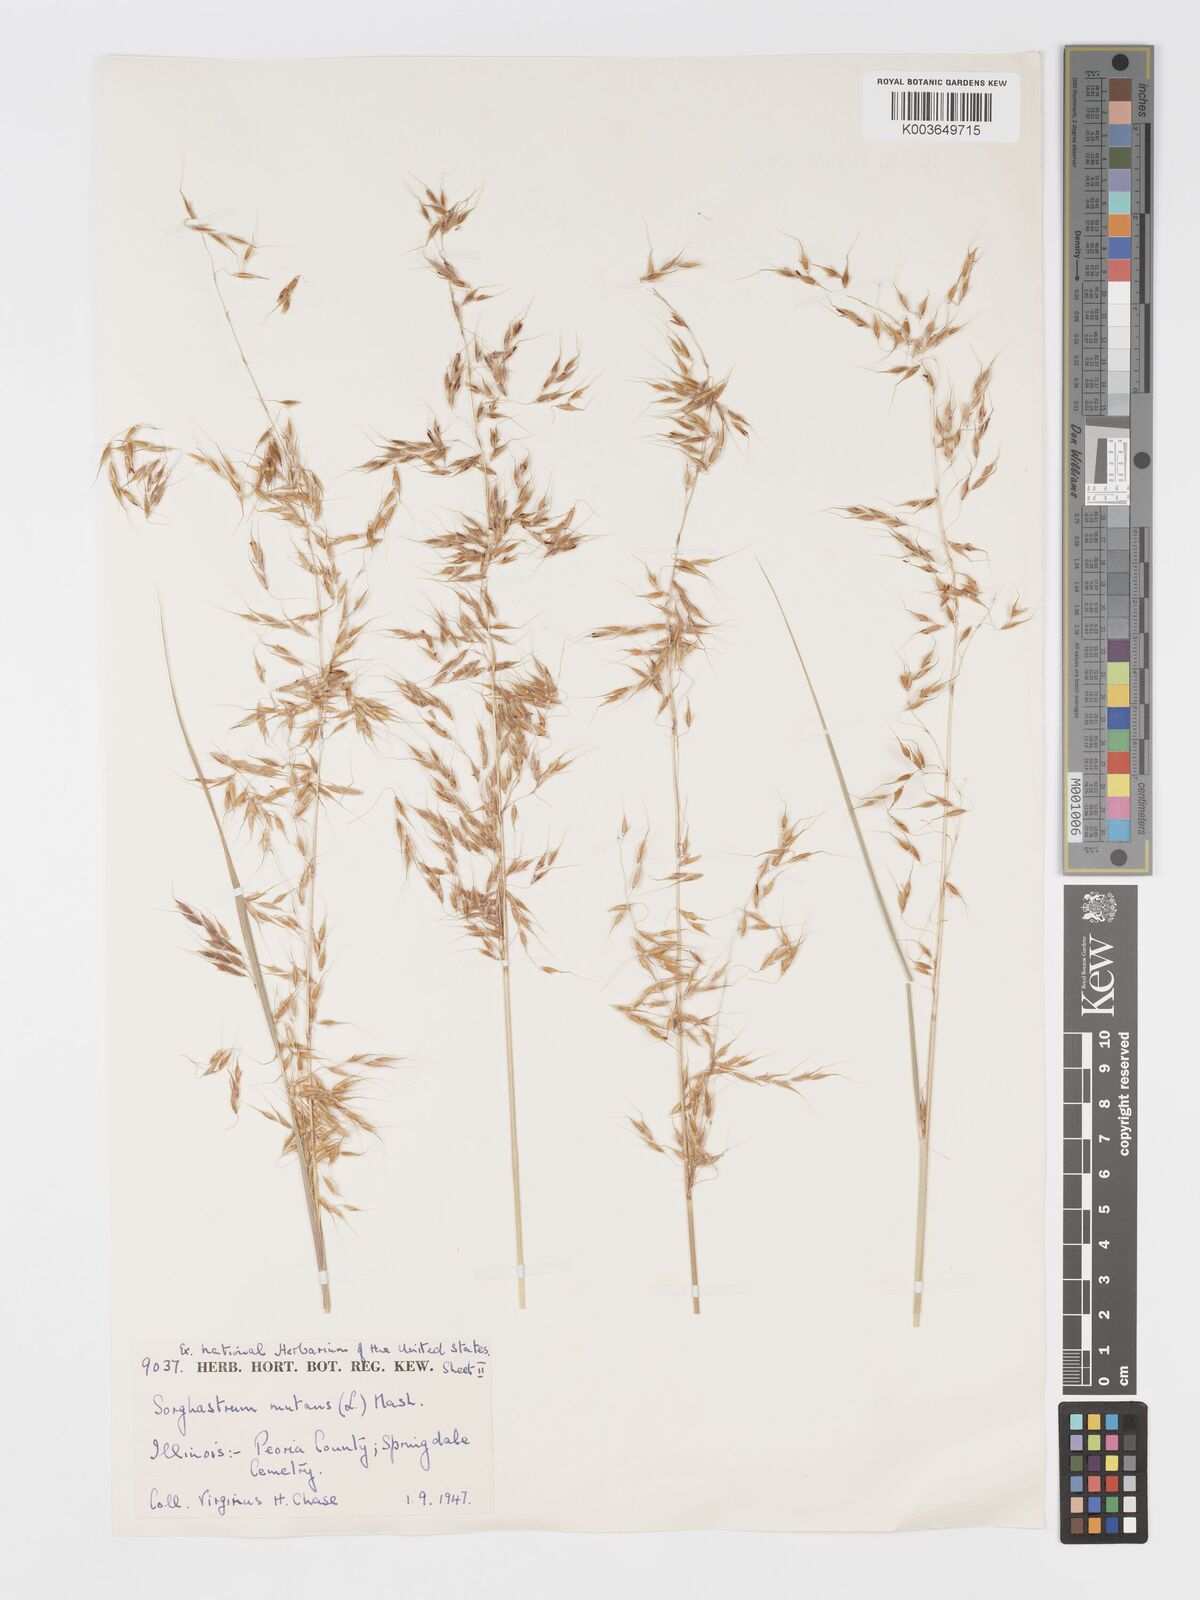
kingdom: Plantae
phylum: Tracheophyta
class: Liliopsida
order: Poales
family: Poaceae
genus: Sorghastrum
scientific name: Sorghastrum nutans
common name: Indian grass
